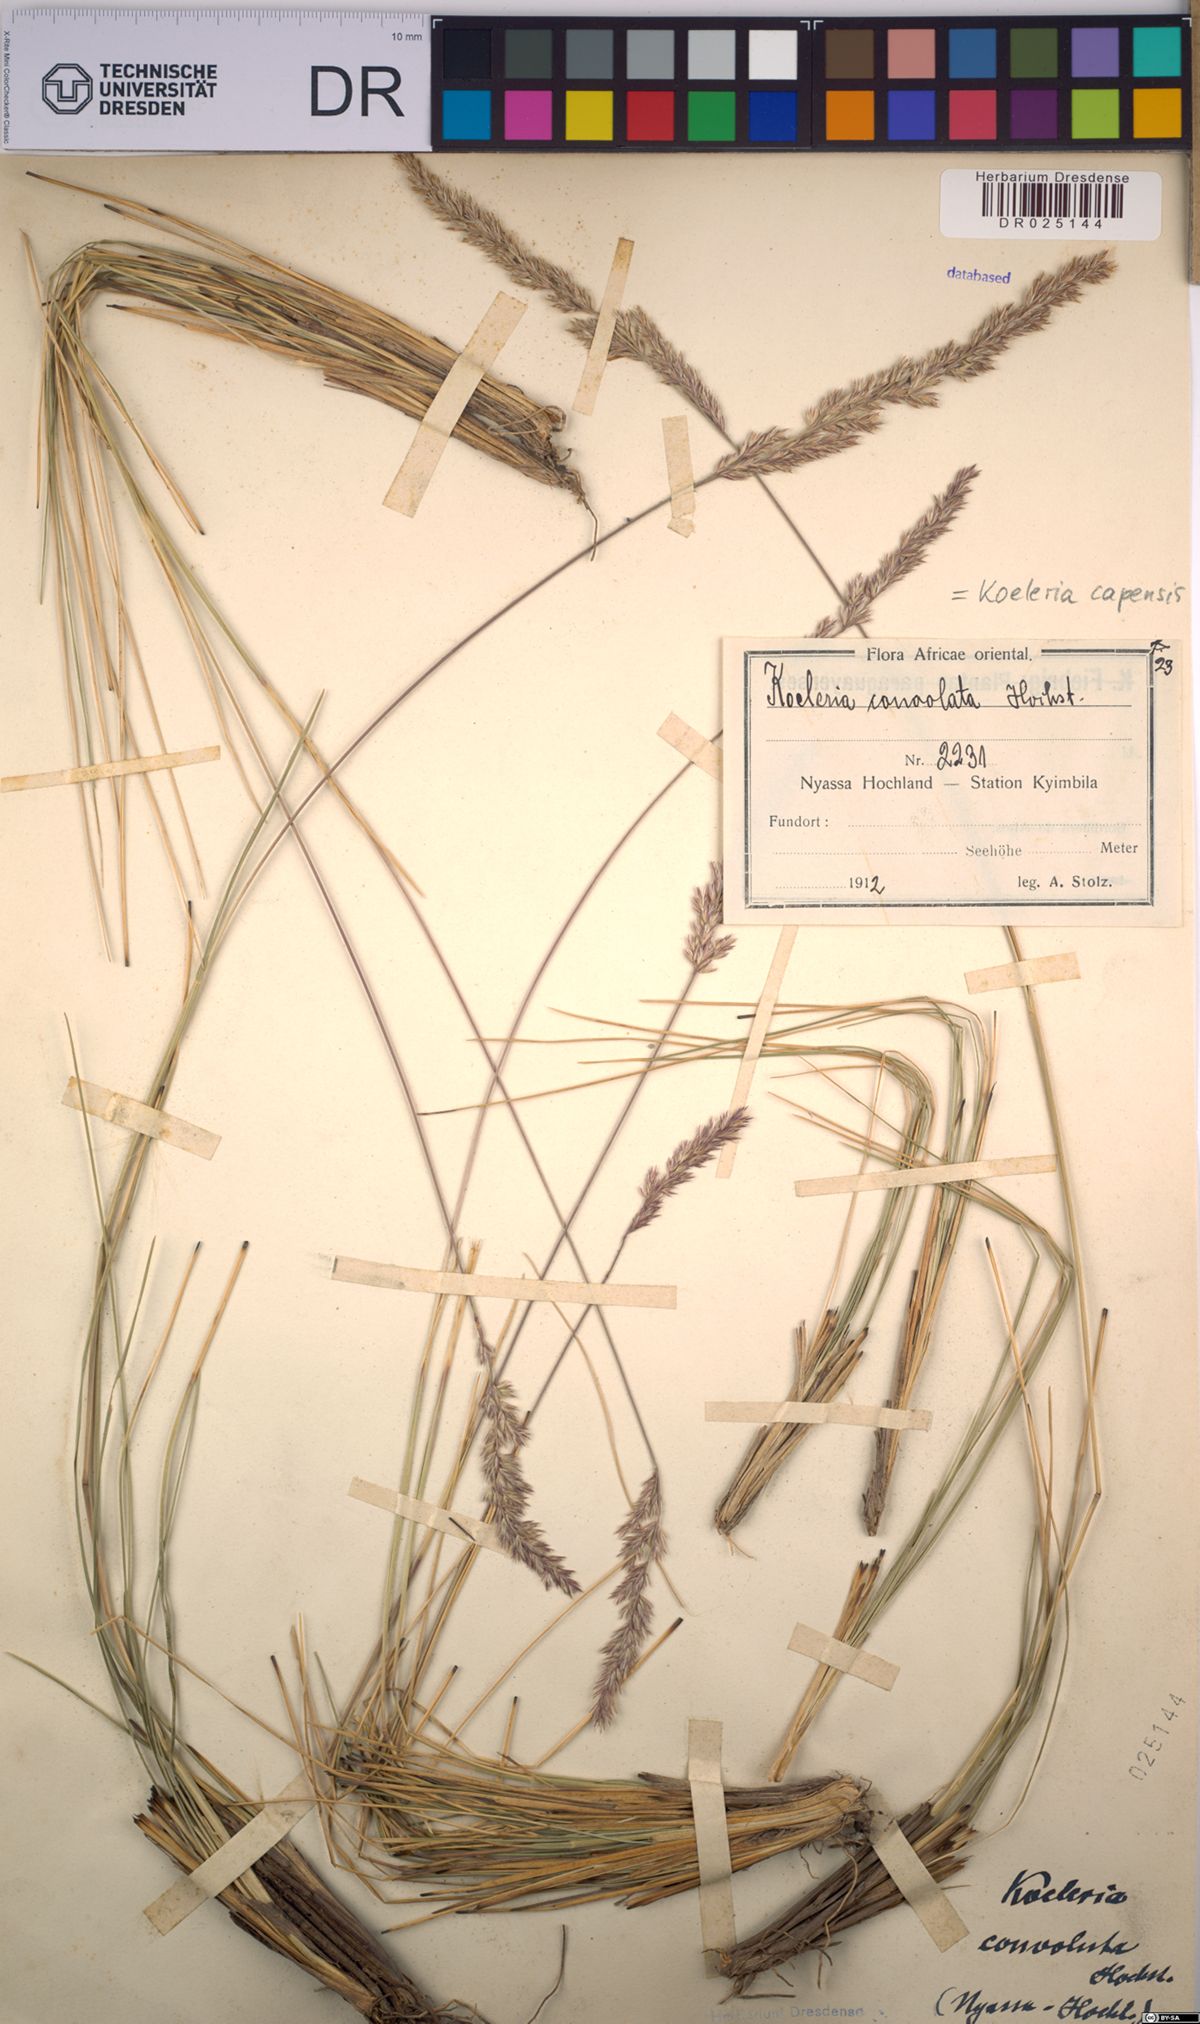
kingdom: Plantae
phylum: Tracheophyta
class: Liliopsida
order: Poales
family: Poaceae
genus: Koeleria
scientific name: Koeleria capensis
